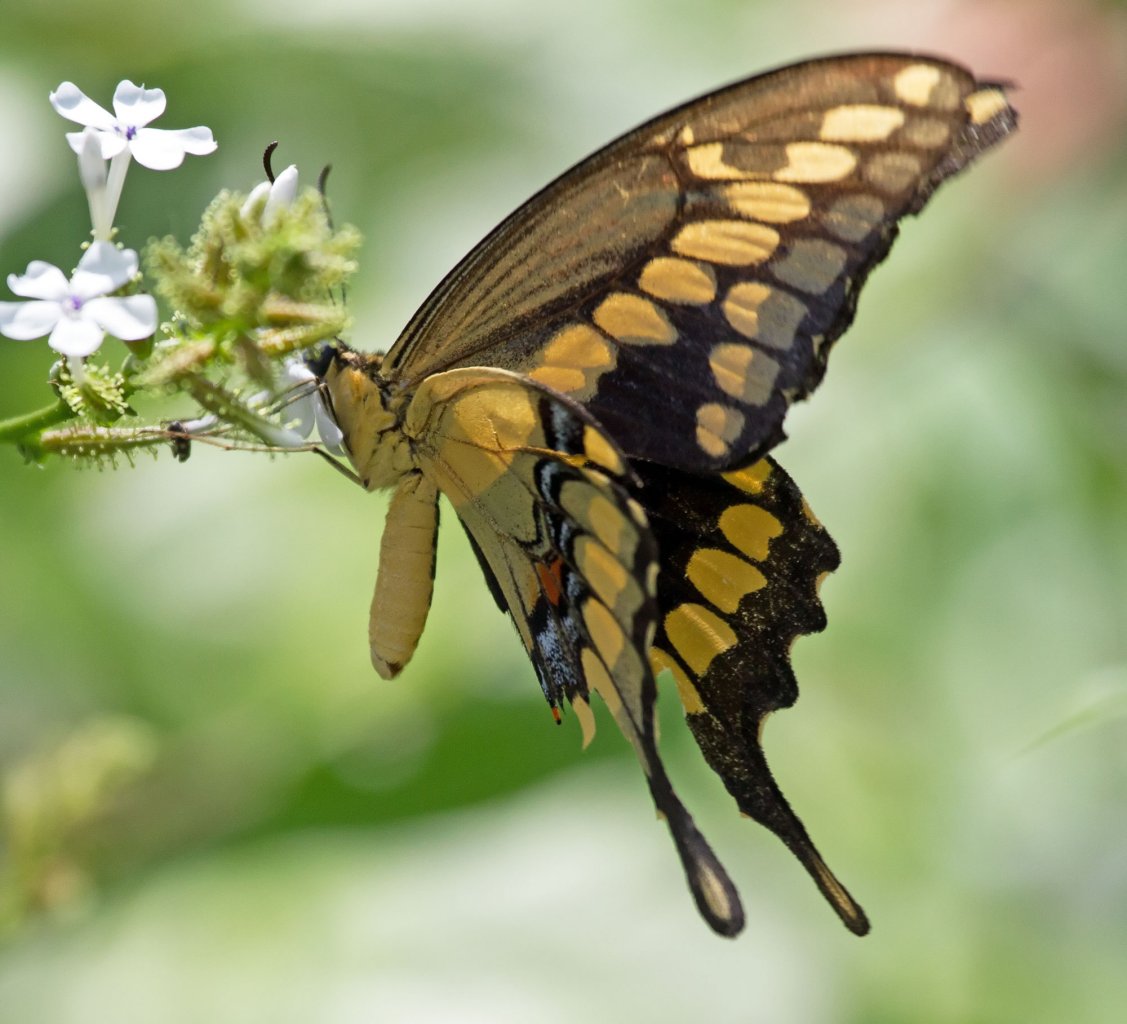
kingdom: Animalia
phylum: Arthropoda
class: Insecta
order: Lepidoptera
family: Papilionidae
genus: Papilio
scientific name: Papilio rumiko
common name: Western Giant Swallowtail
